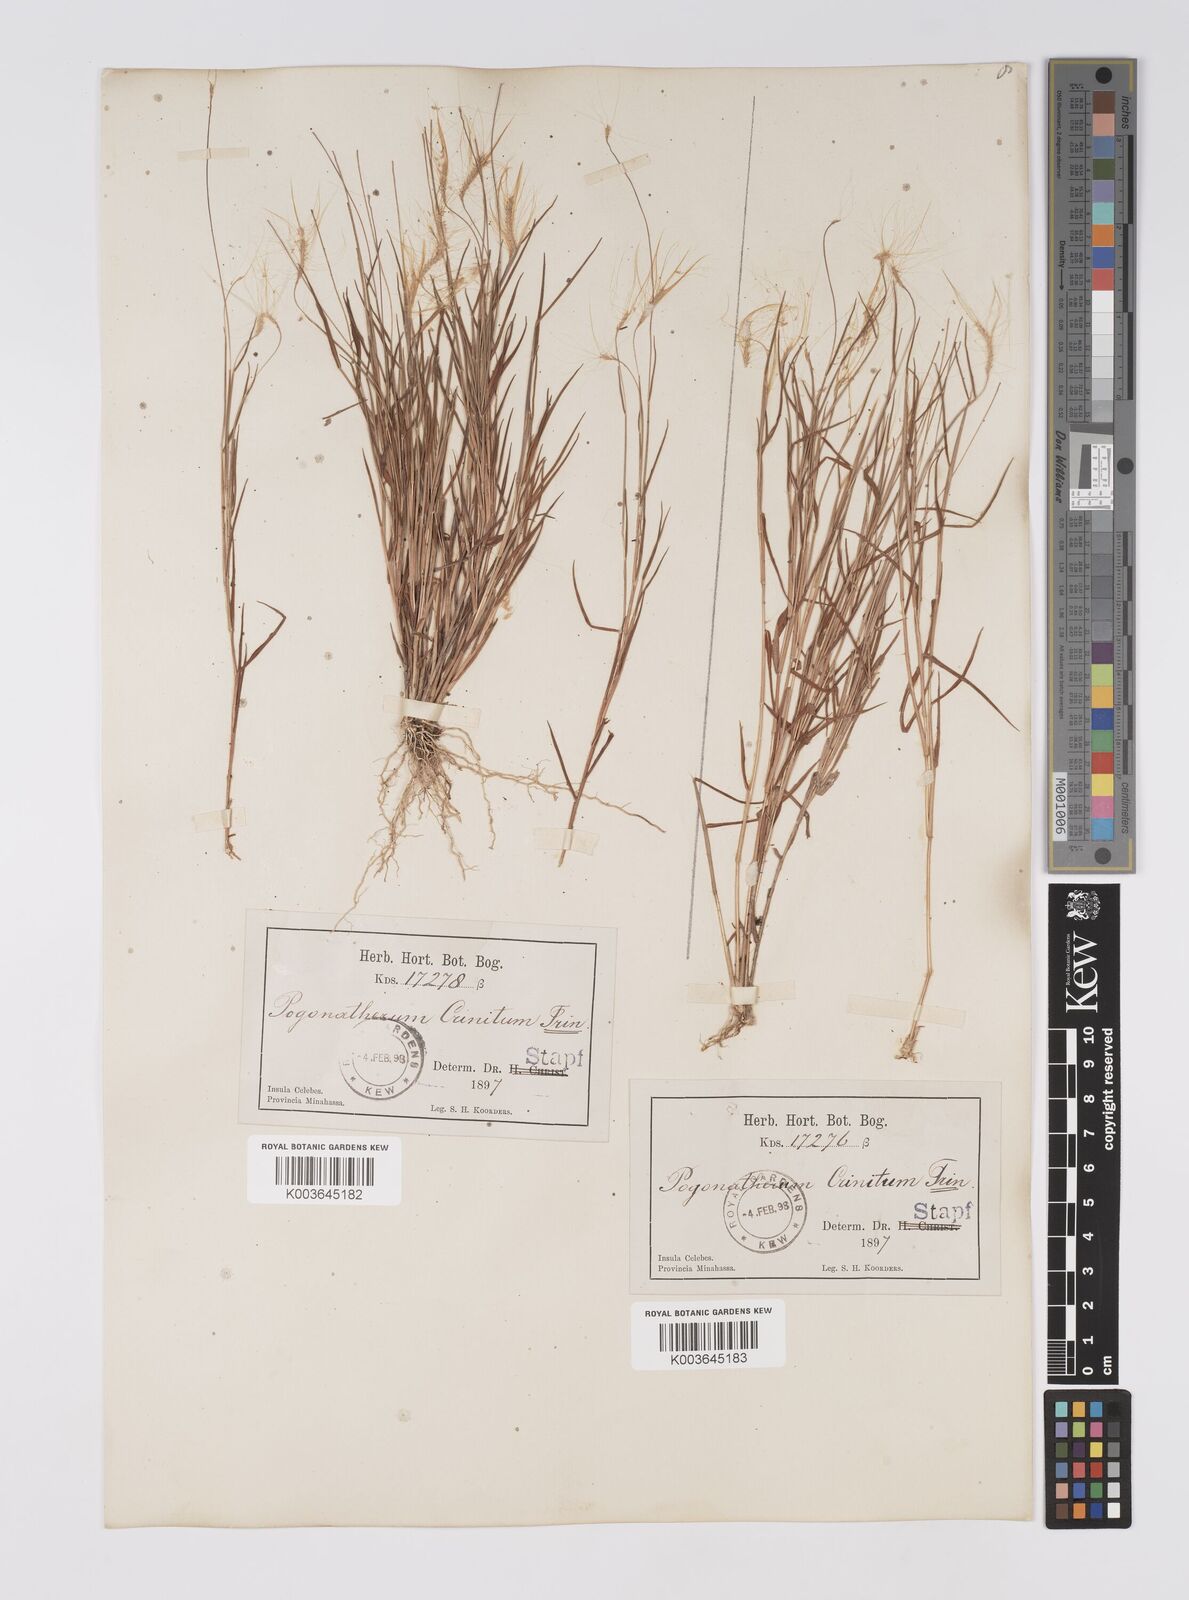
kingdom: Plantae
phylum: Tracheophyta
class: Liliopsida
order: Poales
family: Poaceae
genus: Pogonatherum
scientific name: Pogonatherum crinitum
